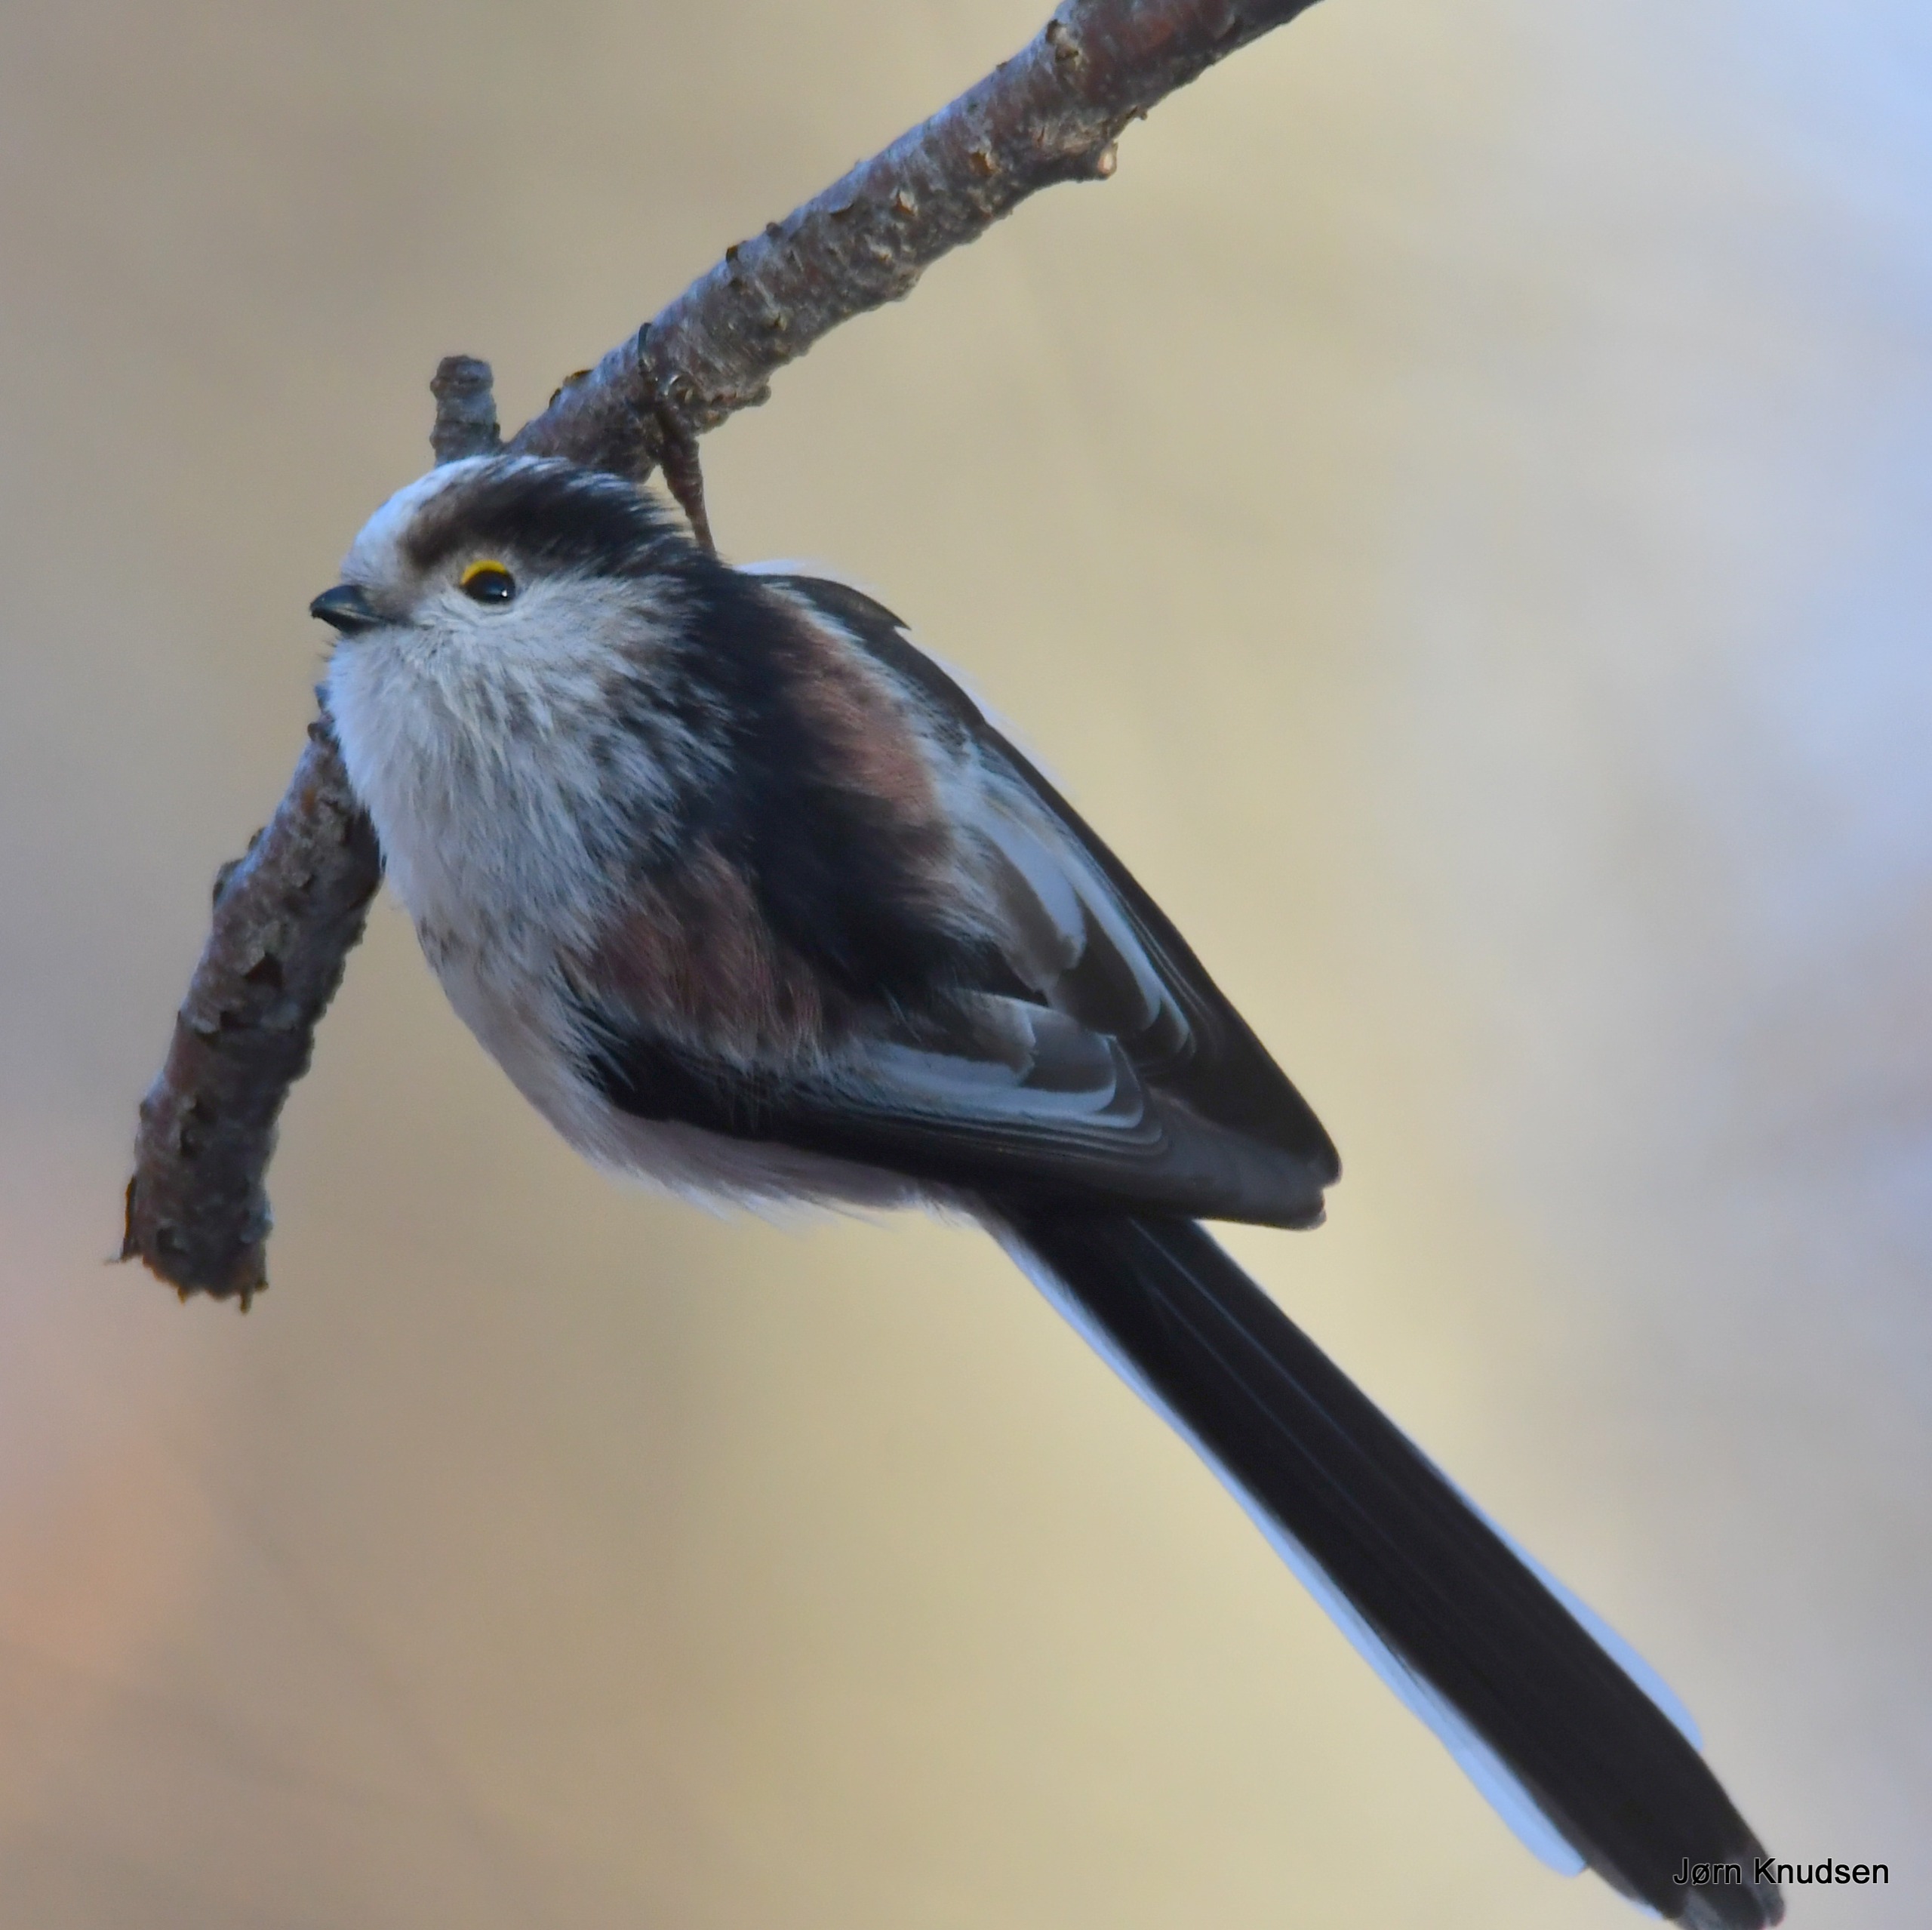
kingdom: Animalia
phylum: Chordata
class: Aves
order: Passeriformes
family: Aegithalidae
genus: Aegithalos
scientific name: Aegithalos caudatus
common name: Halemejse
